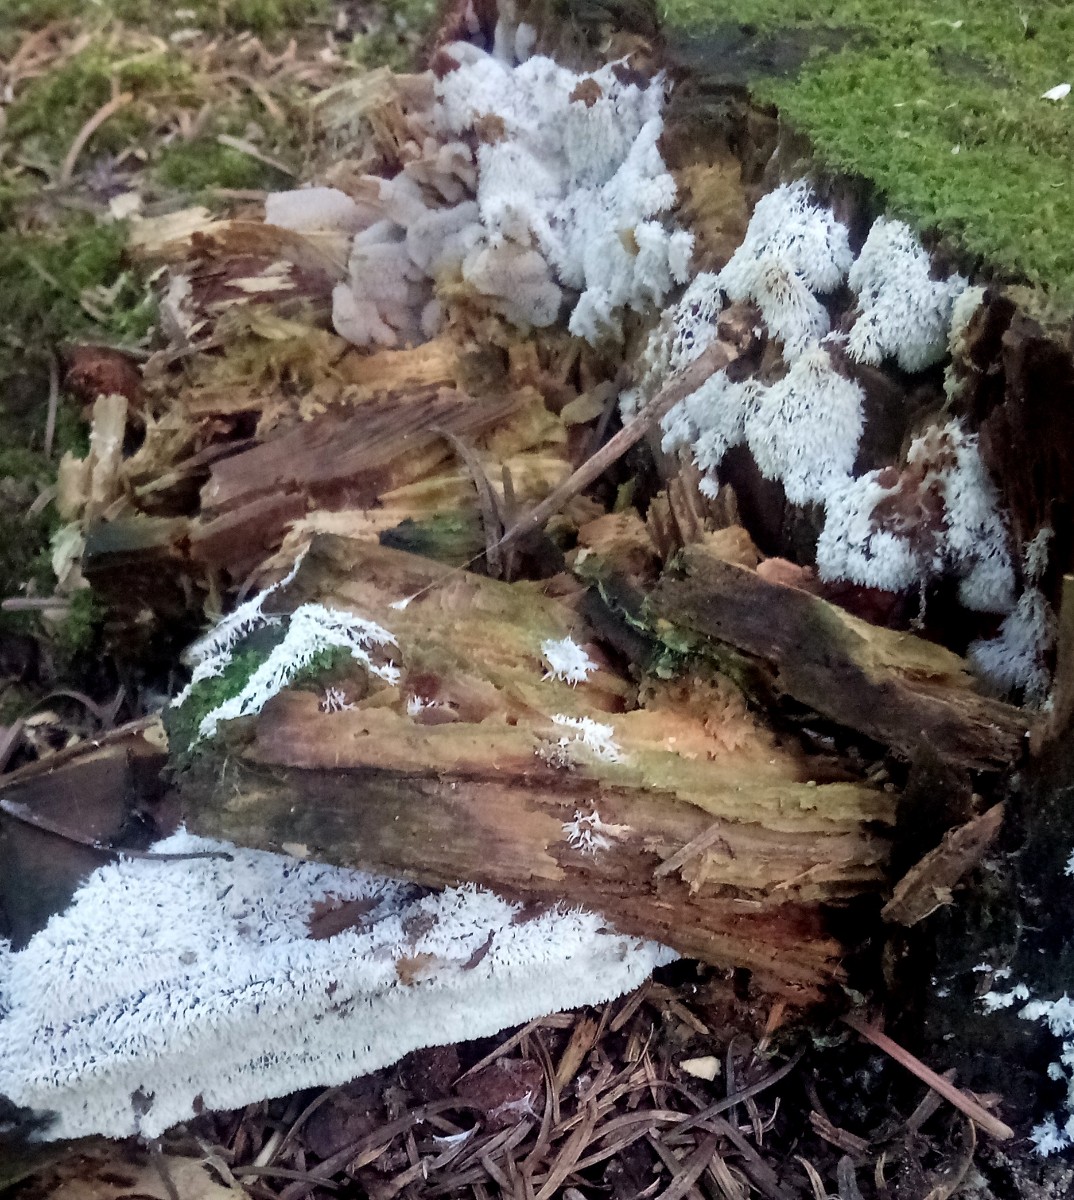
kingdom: Protozoa
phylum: Mycetozoa
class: Protosteliomycetes
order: Ceratiomyxales
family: Ceratiomyxaceae
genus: Ceratiomyxa
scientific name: Ceratiomyxa fruticulosa
